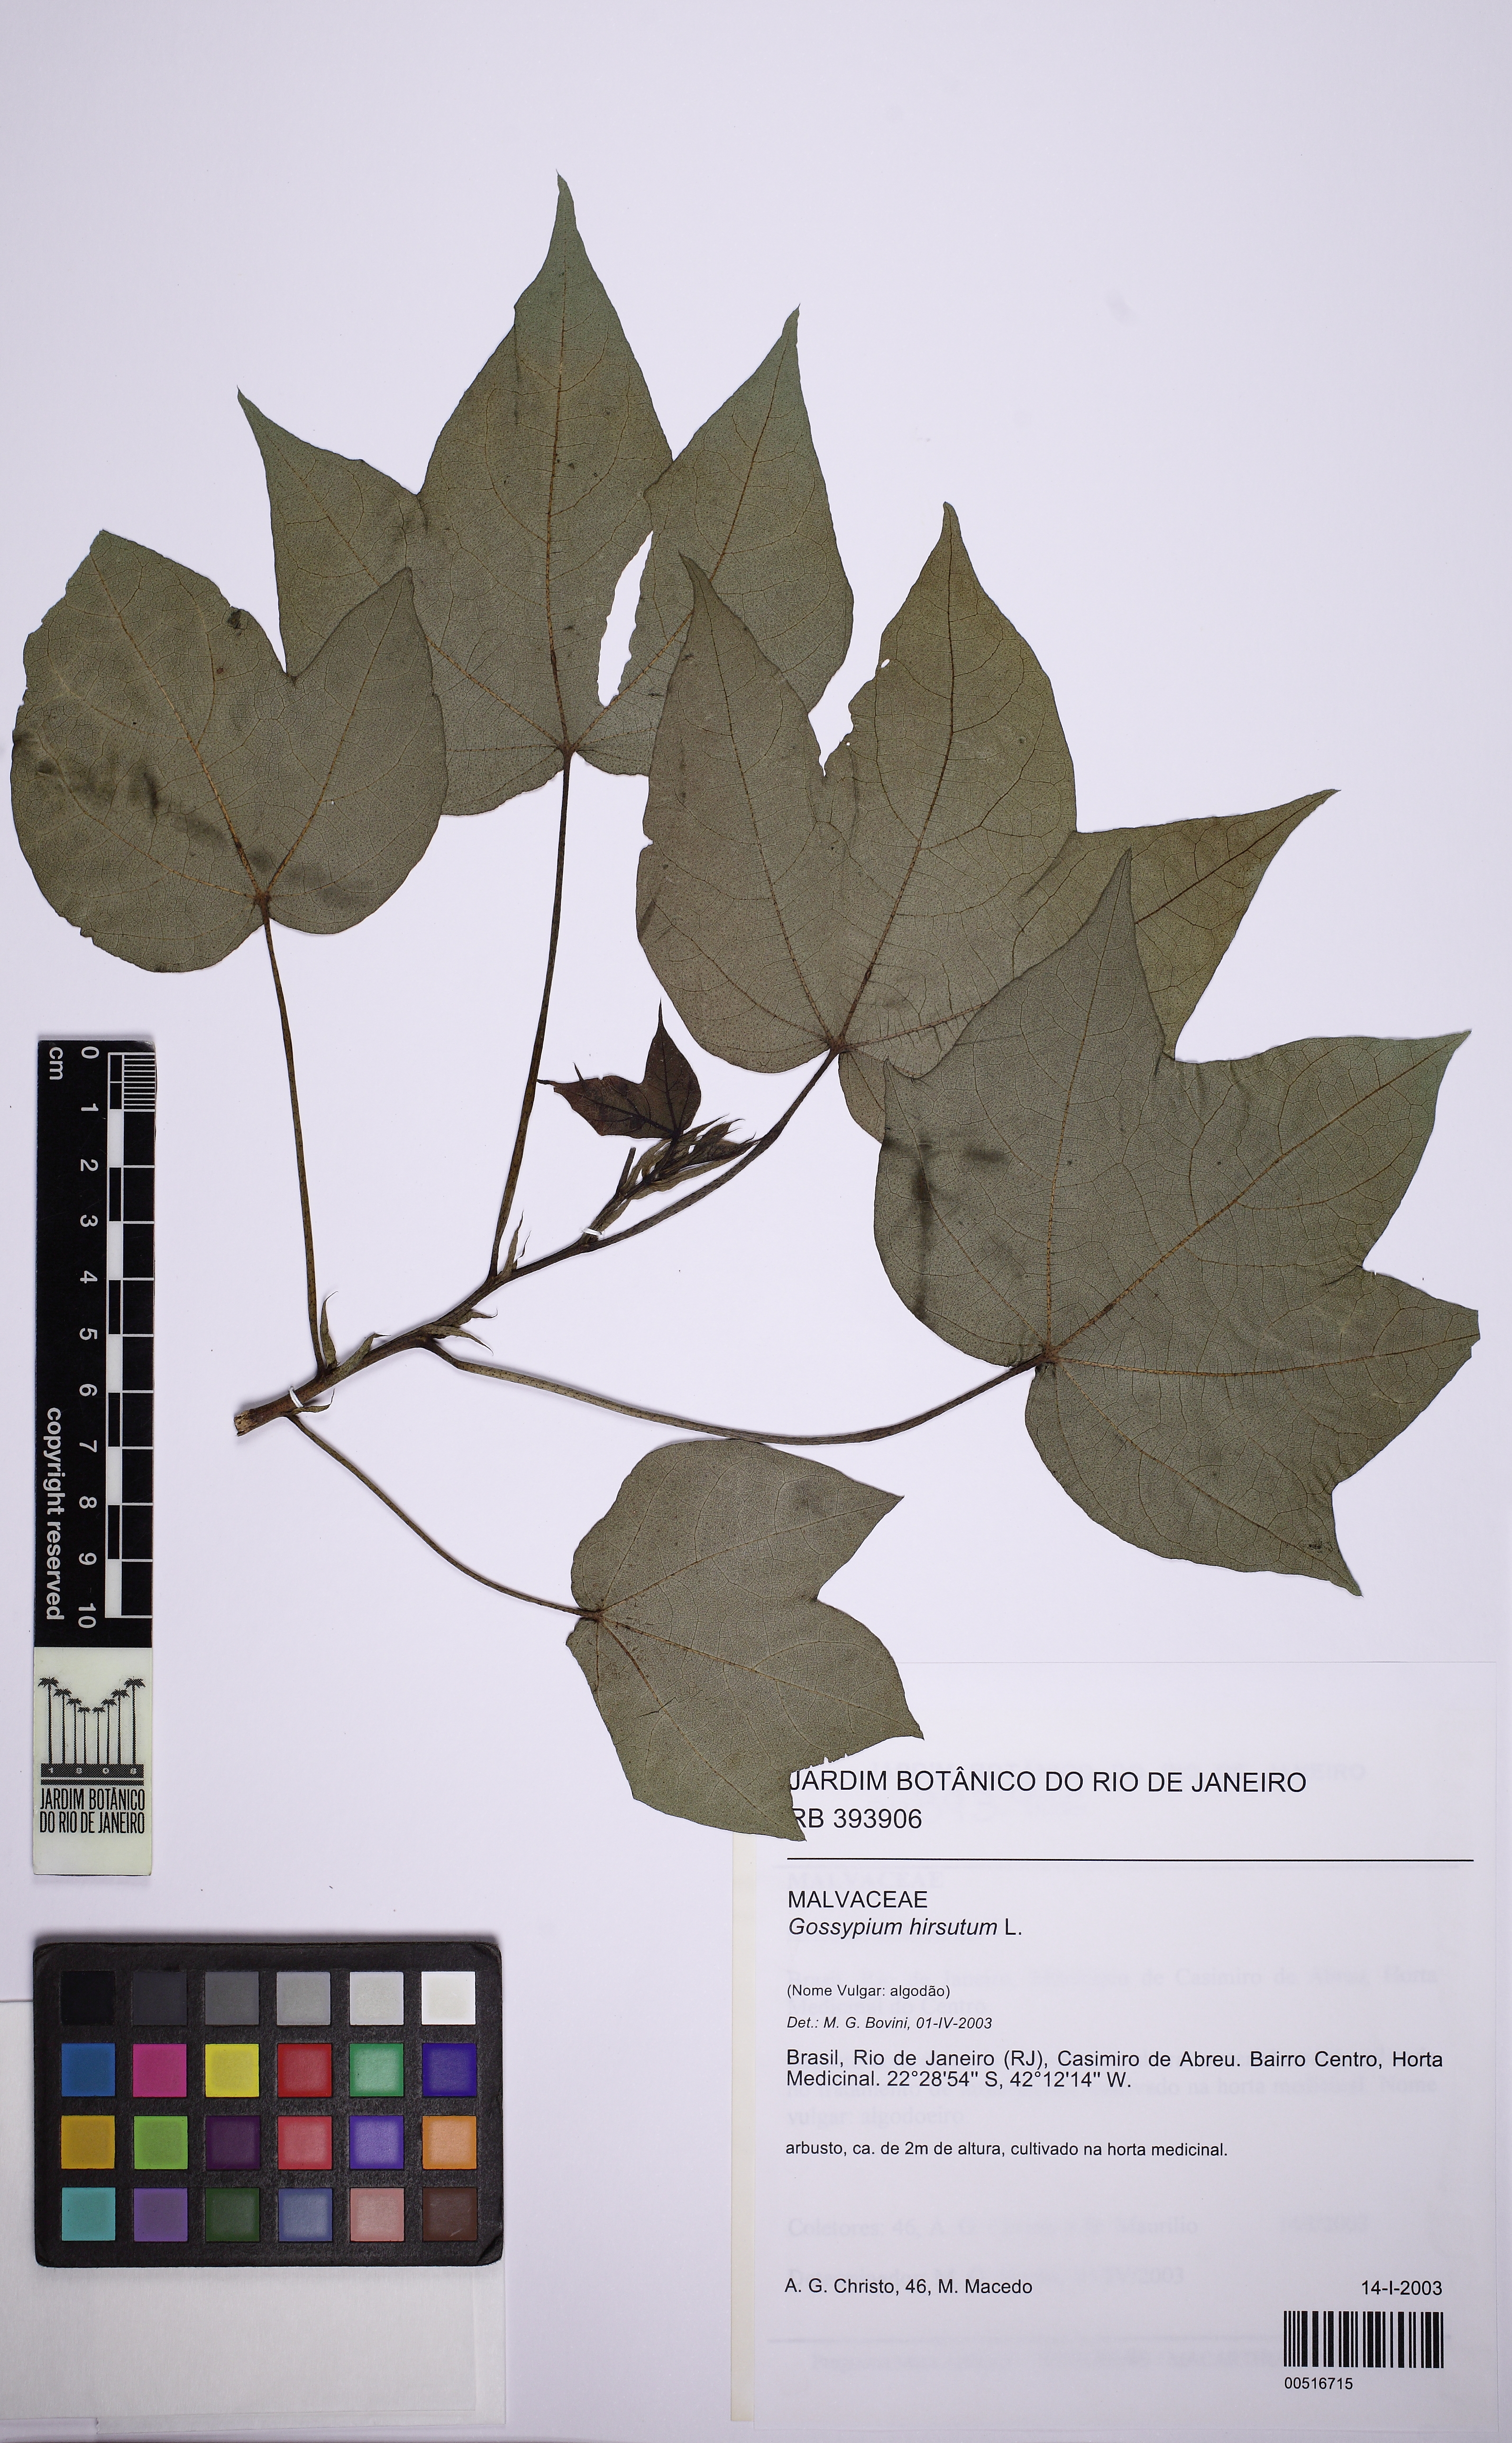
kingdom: Plantae
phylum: Tracheophyta
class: Magnoliopsida
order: Malvales
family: Malvaceae
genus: Gossypium
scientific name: Gossypium hirsutum
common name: Cotton
